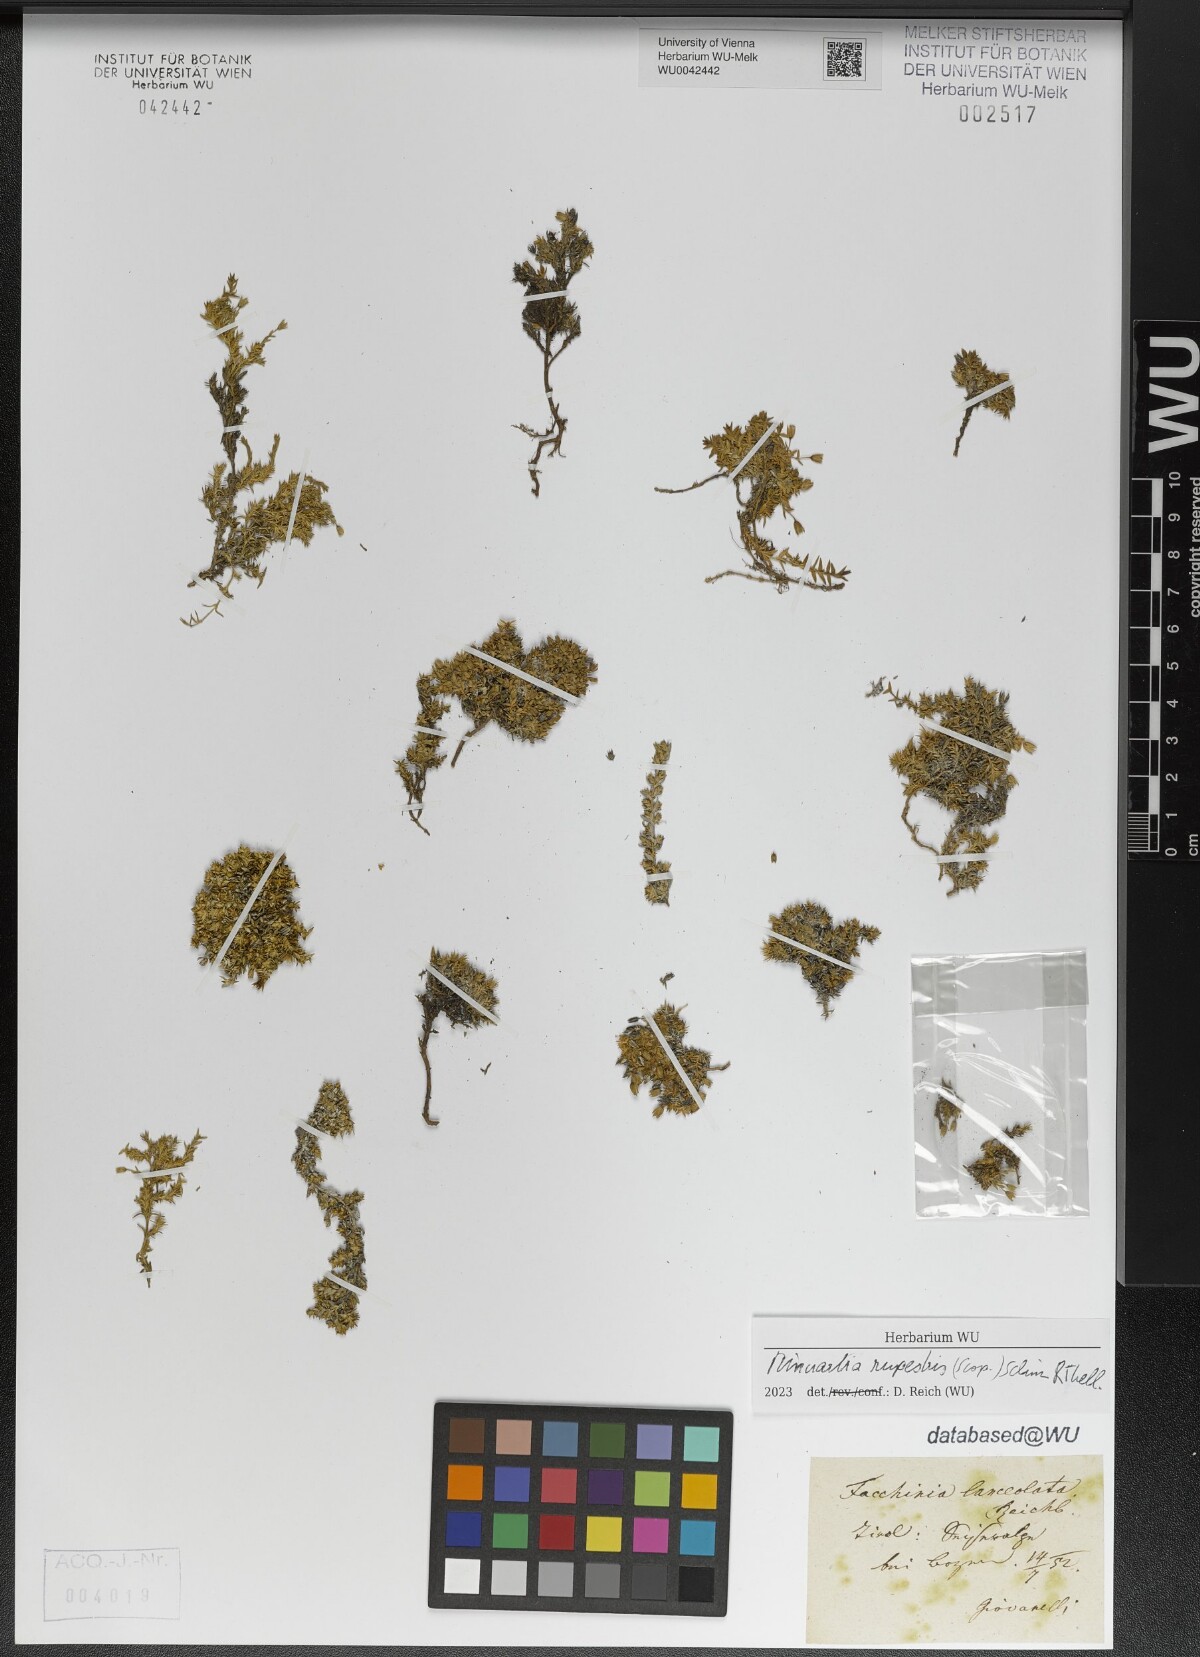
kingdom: Plantae
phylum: Tracheophyta
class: Magnoliopsida
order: Caryophyllales
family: Caryophyllaceae
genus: Facchinia
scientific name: Facchinia rupestris
